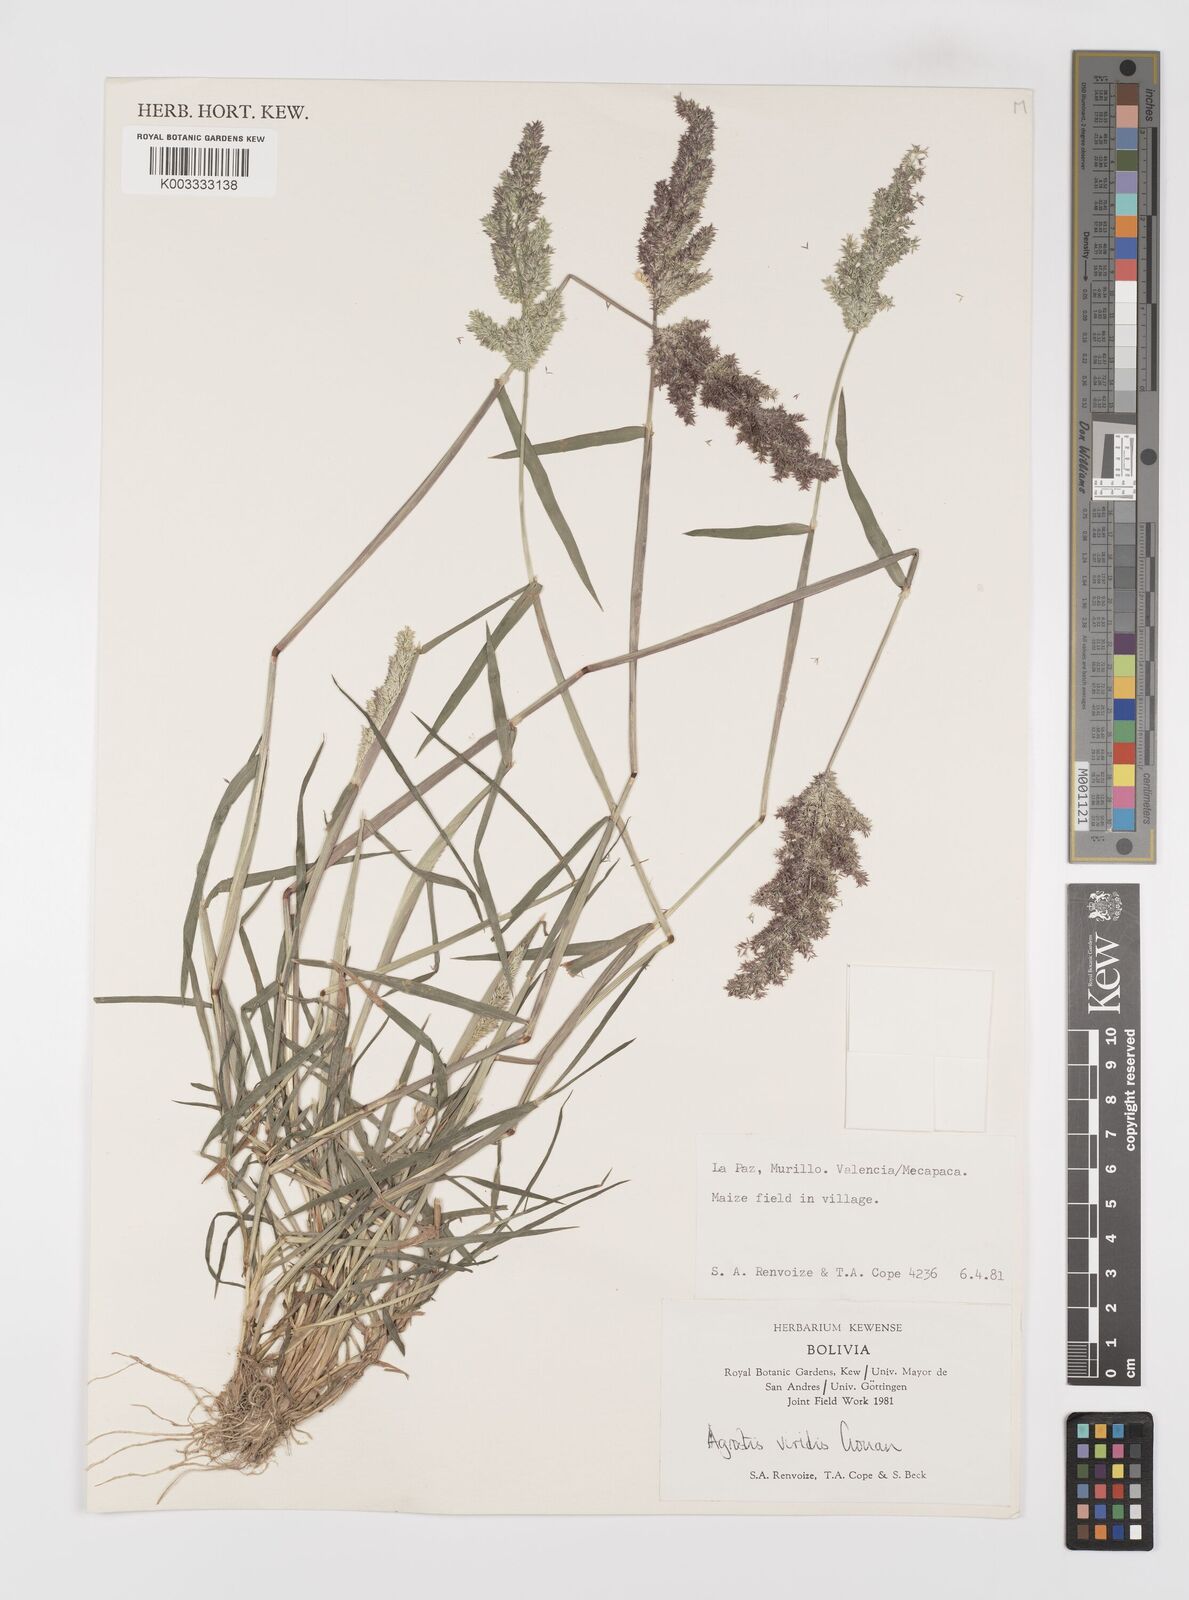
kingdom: Plantae
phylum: Tracheophyta
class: Liliopsida
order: Poales
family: Poaceae
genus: Polypogon
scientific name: Polypogon viridis
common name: Water bent
